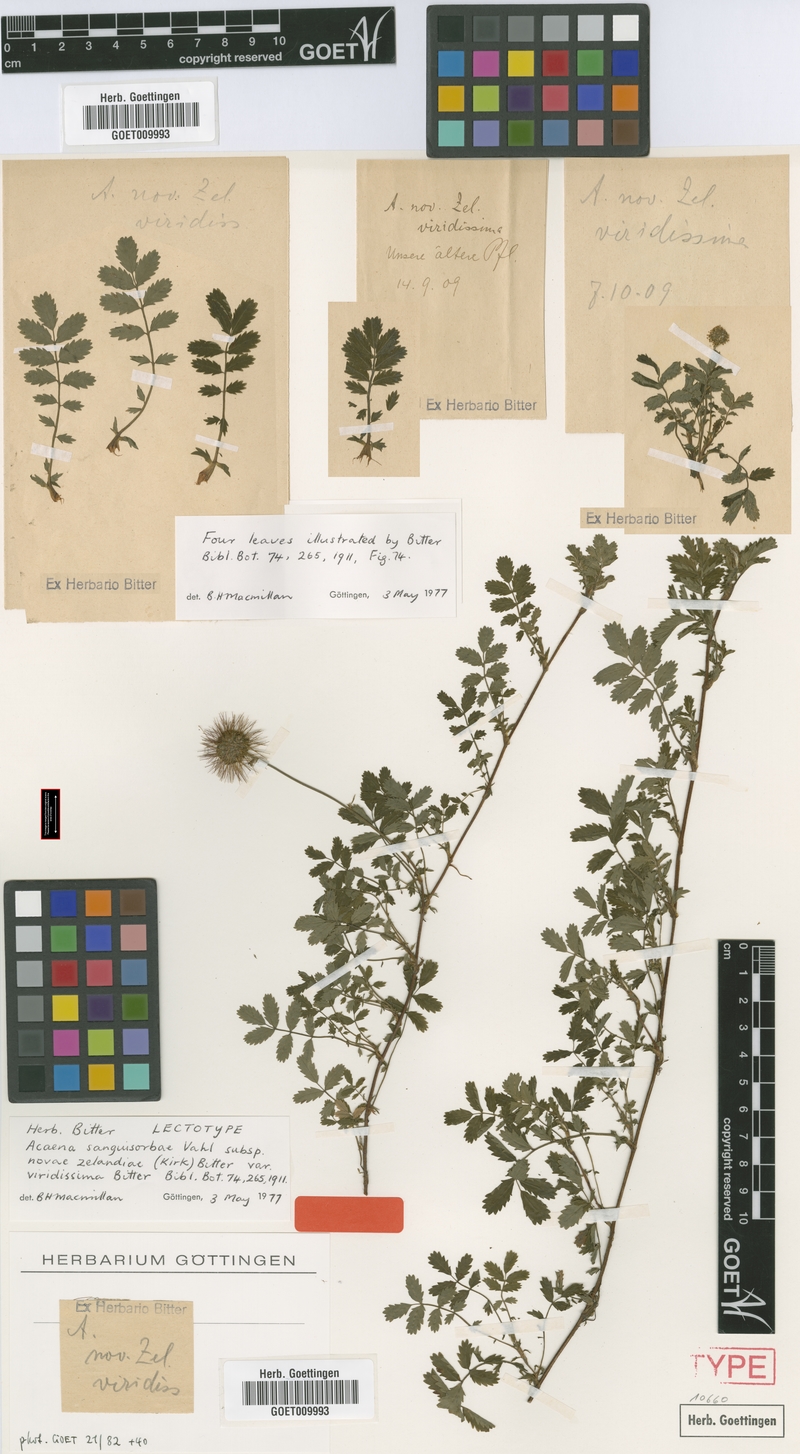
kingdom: Plantae
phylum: Tracheophyta
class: Magnoliopsida
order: Rosales
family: Rosaceae
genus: Acaena
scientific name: Acaena novae-zelandiae
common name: Pirri-pirri-bur
